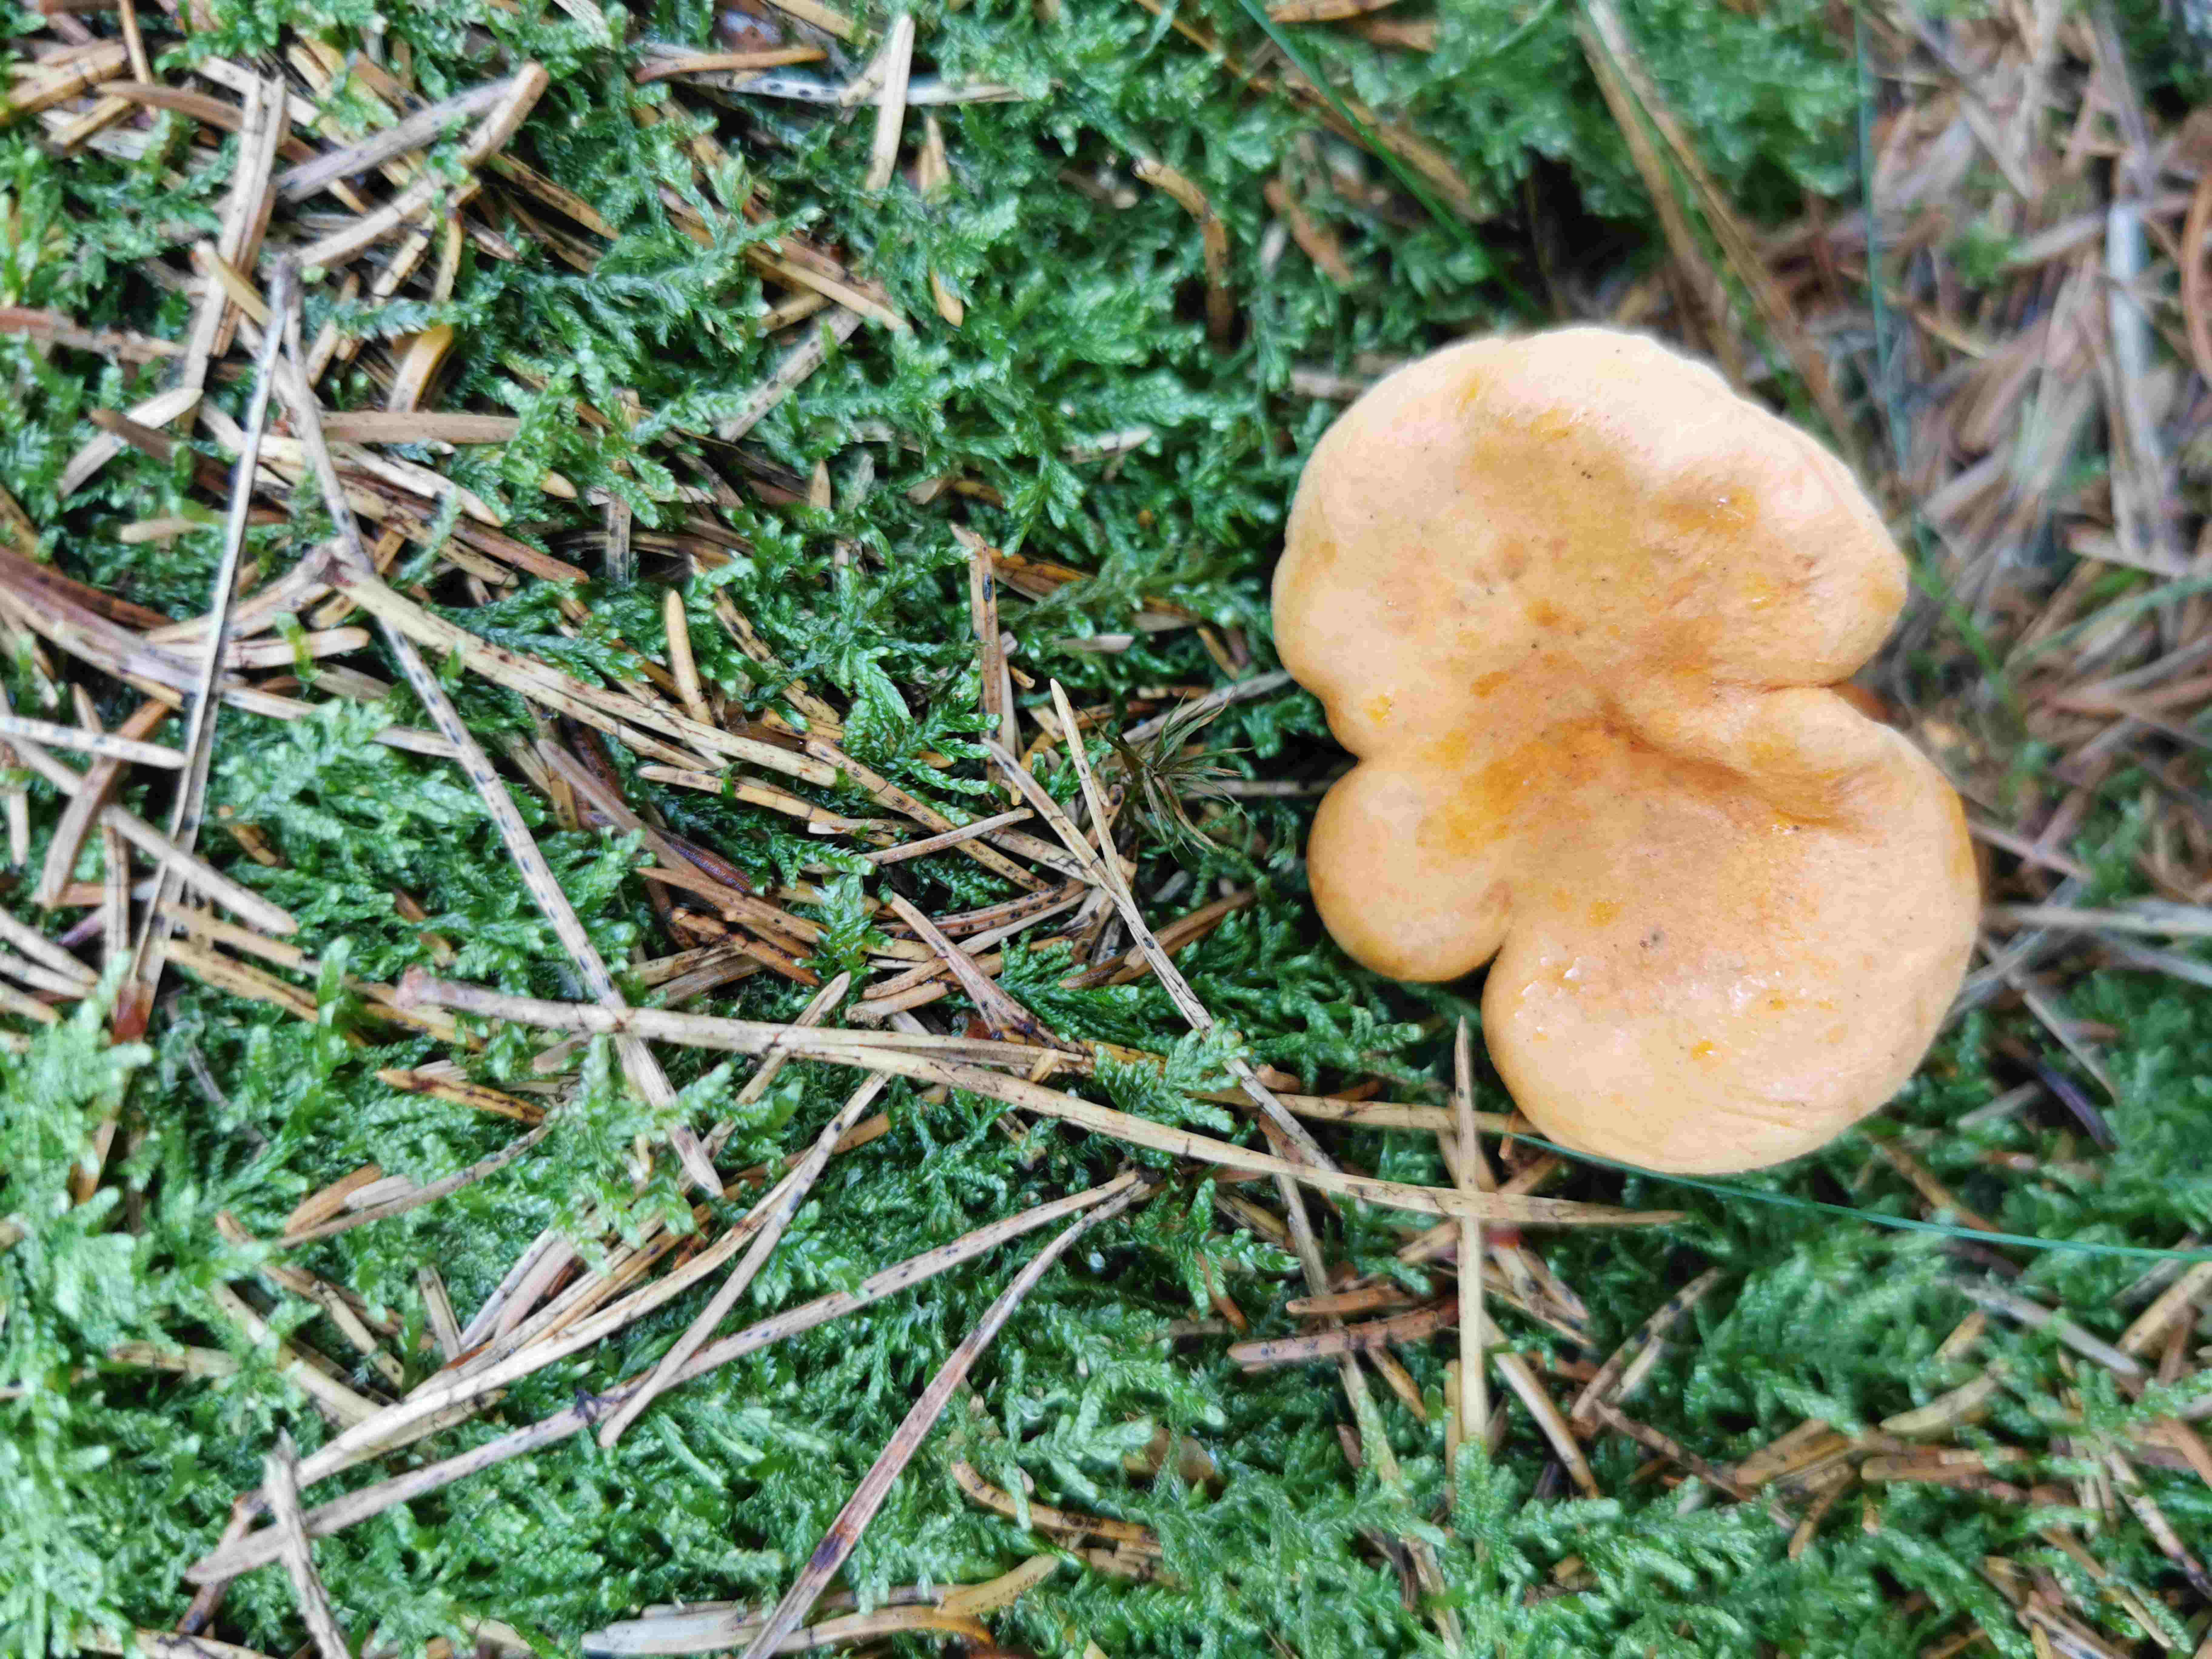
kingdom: Fungi
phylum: Basidiomycota
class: Agaricomycetes
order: Boletales
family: Hygrophoropsidaceae
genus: Hygrophoropsis
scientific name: Hygrophoropsis aurantiaca
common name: almindelig orangekantarel
